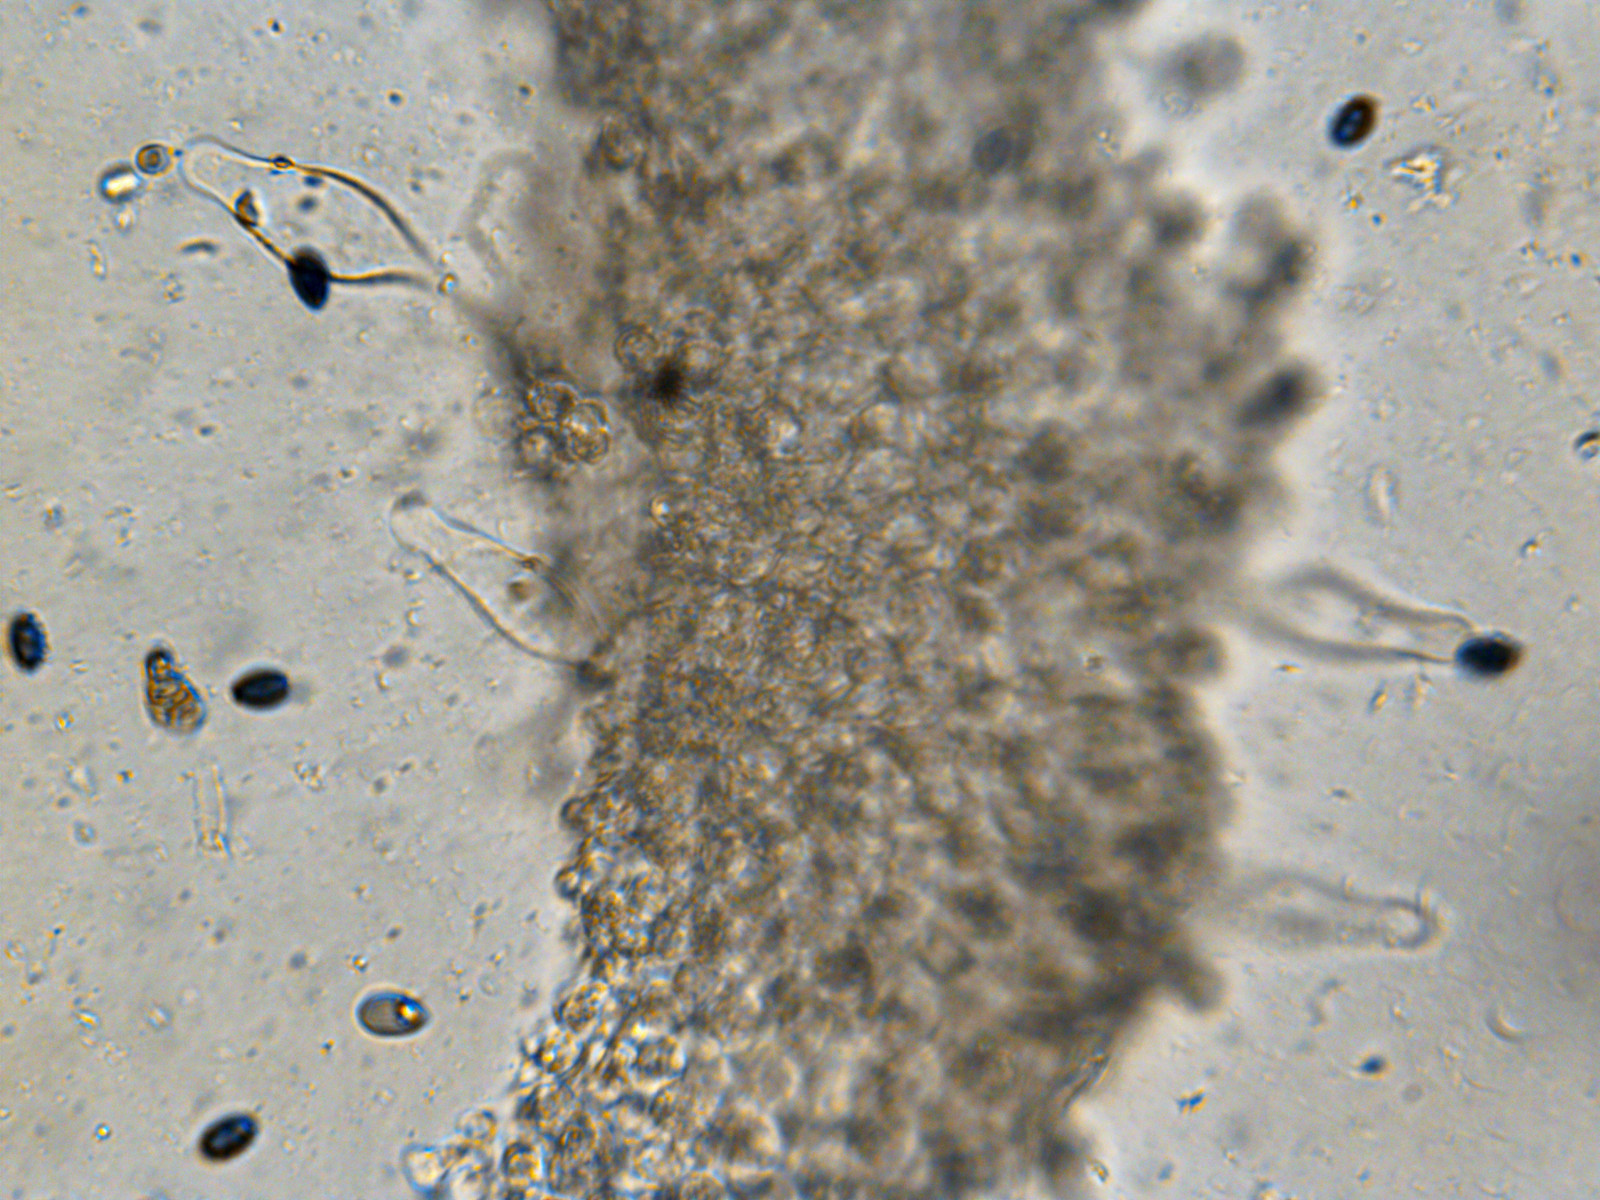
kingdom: Fungi
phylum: Basidiomycota
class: Agaricomycetes
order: Agaricales
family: Psathyrellaceae
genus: Psathyrella
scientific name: Psathyrella fusca
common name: gråbladet mørkhat
